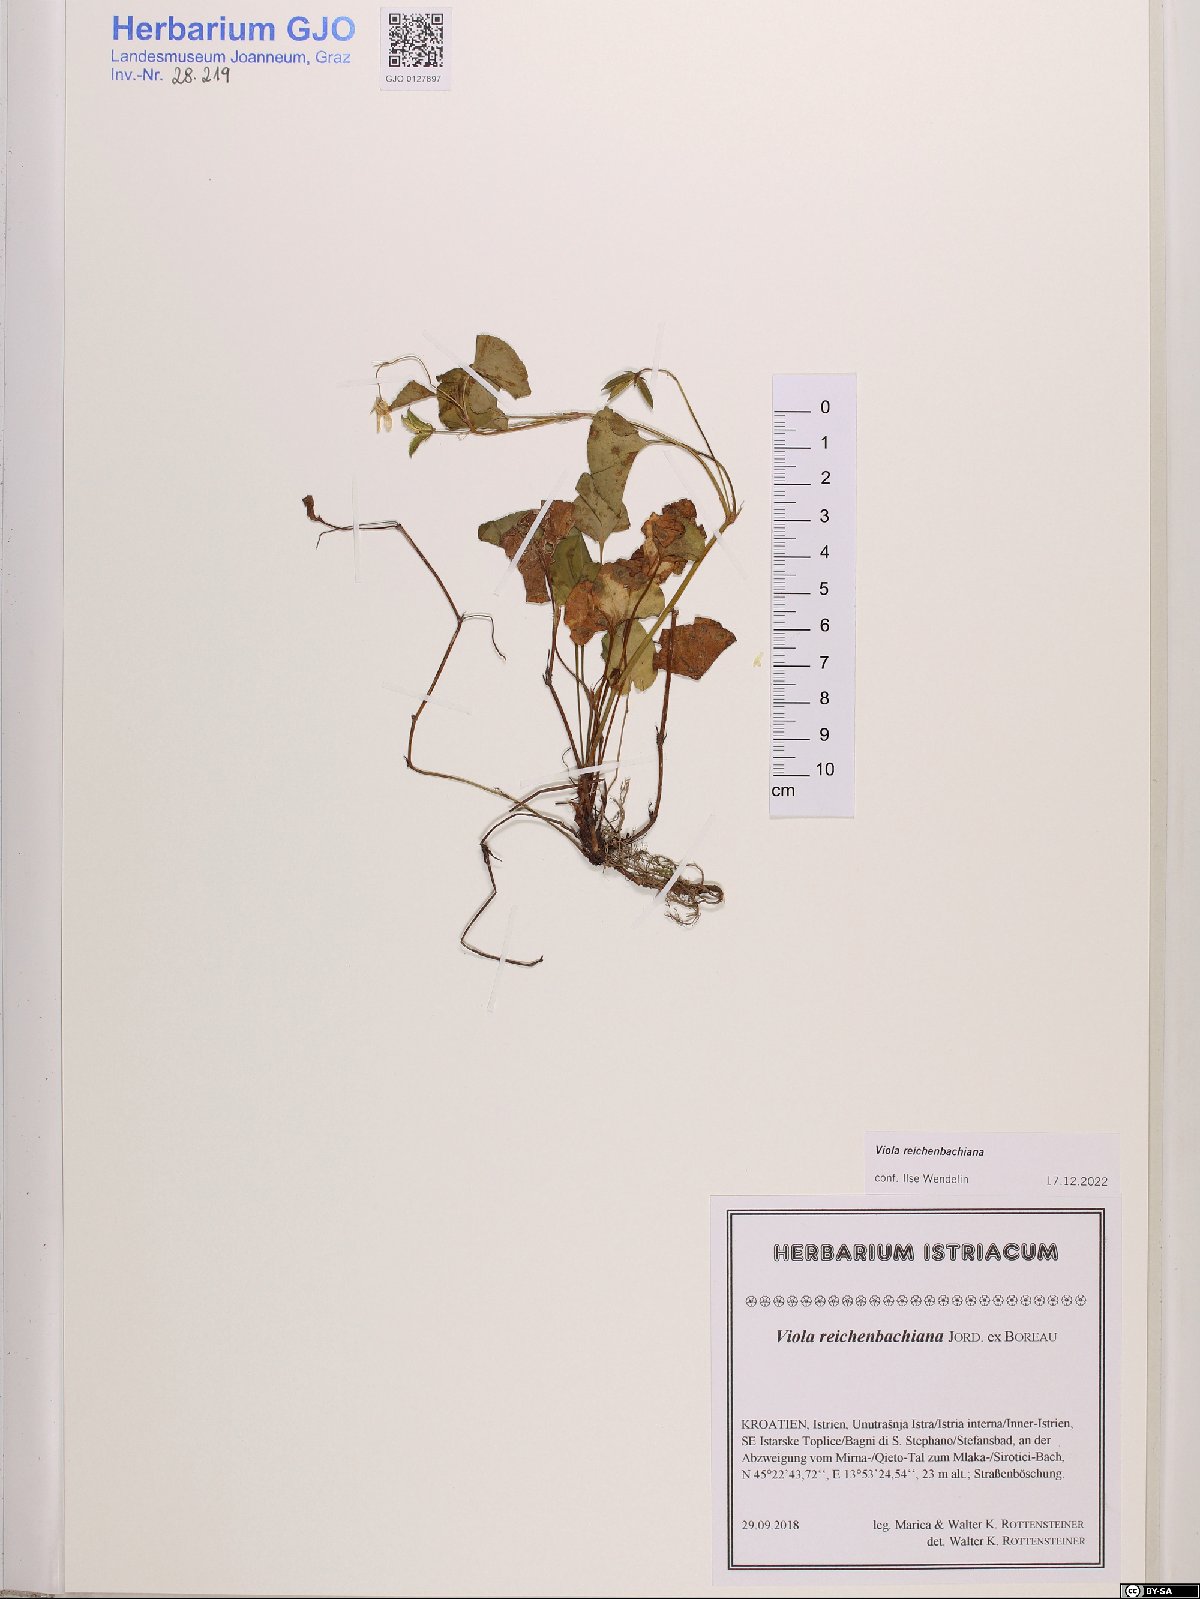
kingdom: Plantae
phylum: Tracheophyta
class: Magnoliopsida
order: Malpighiales
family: Violaceae
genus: Viola
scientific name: Viola reichenbachiana
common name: Early dog-violet
